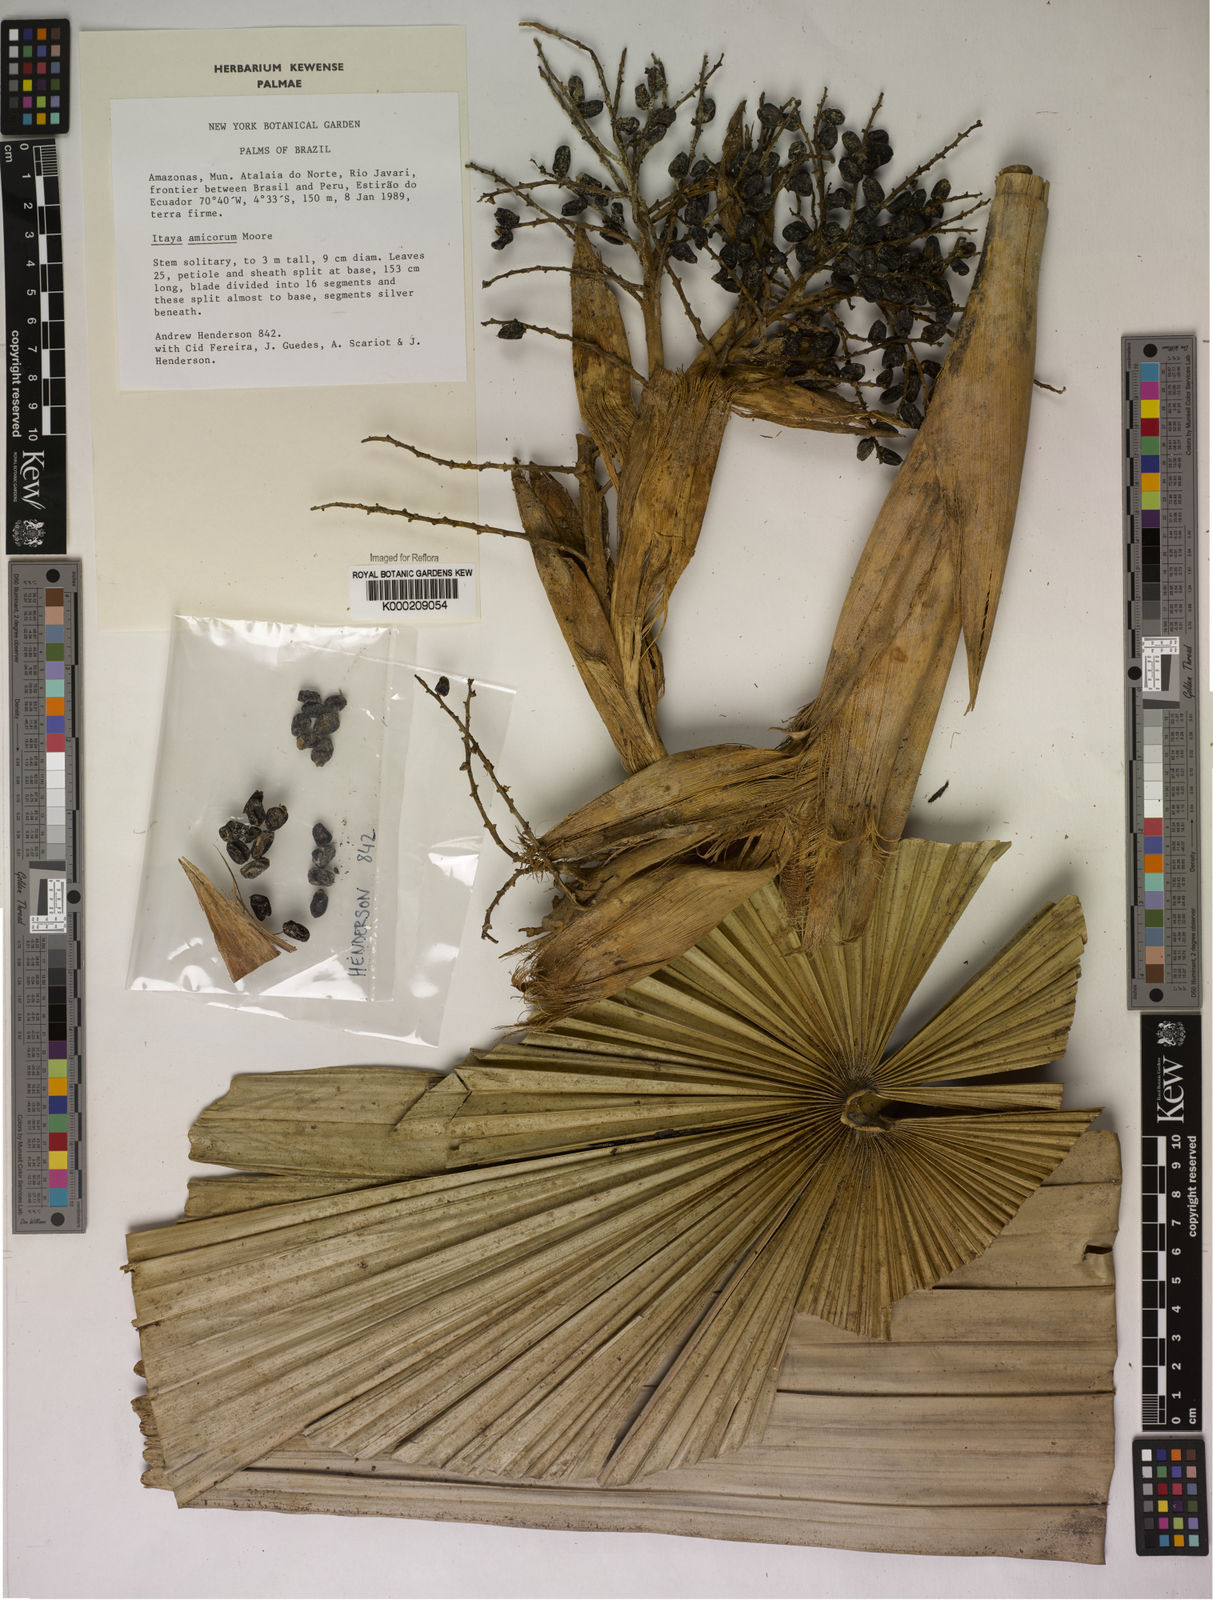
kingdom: Plantae
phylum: Tracheophyta
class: Liliopsida
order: Arecales
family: Arecaceae
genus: Itaya
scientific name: Itaya amicorum
